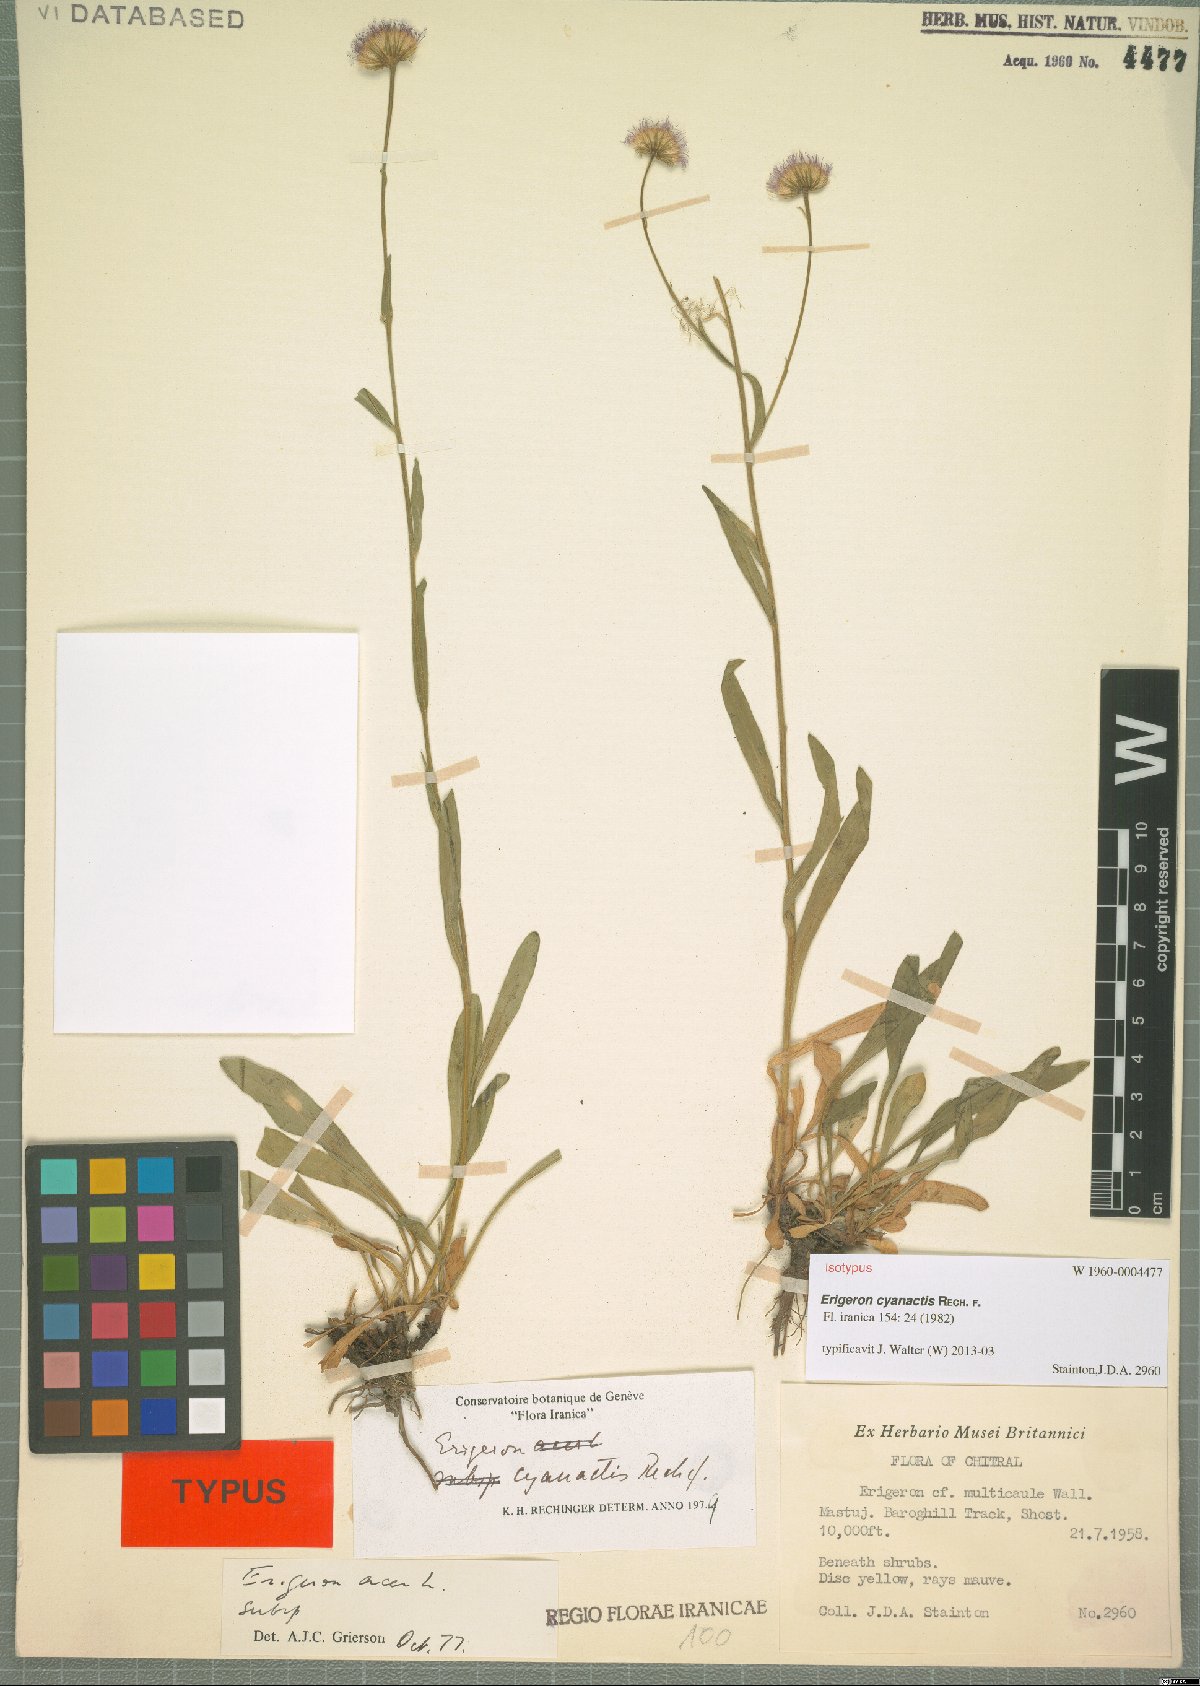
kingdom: Plantae
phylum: Tracheophyta
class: Magnoliopsida
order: Asterales
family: Asteraceae
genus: Erigeron
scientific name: Erigeron cyanactis
